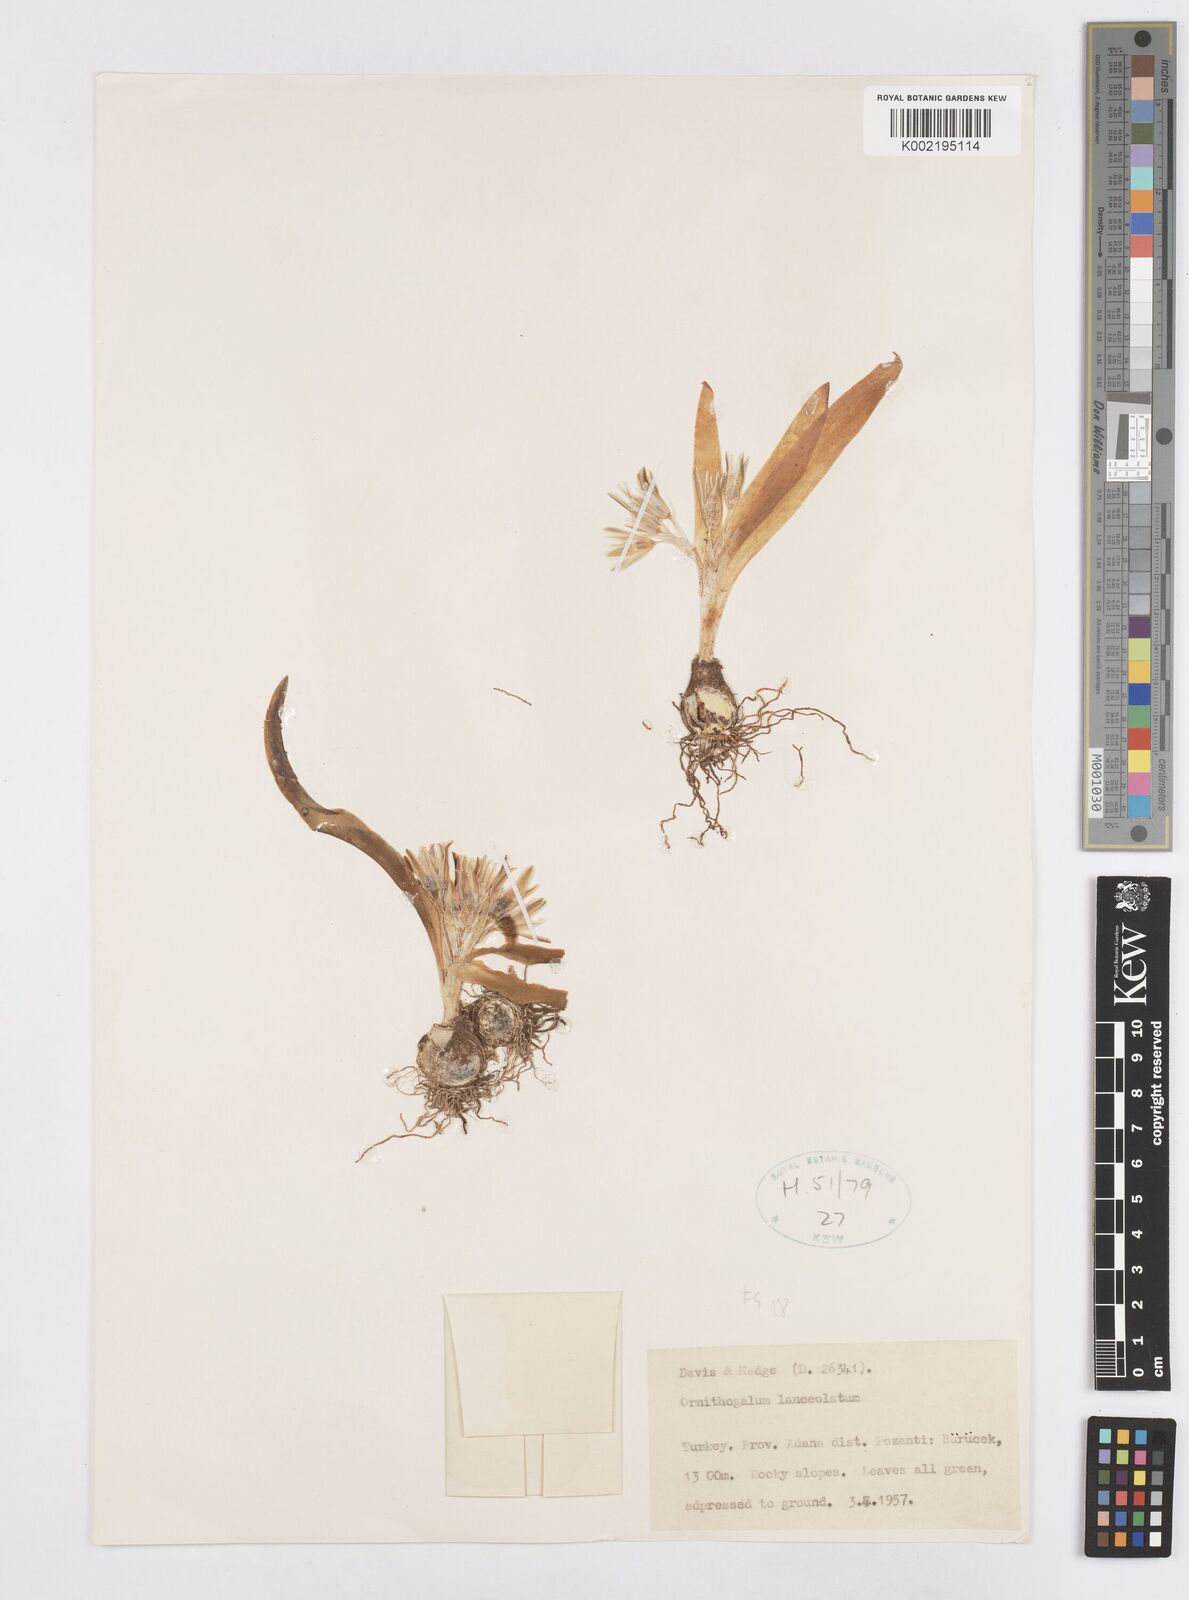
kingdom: Plantae
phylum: Tracheophyta
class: Liliopsida
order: Asparagales
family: Asparagaceae
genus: Ornithogalum
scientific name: Ornithogalum lanceolatum
